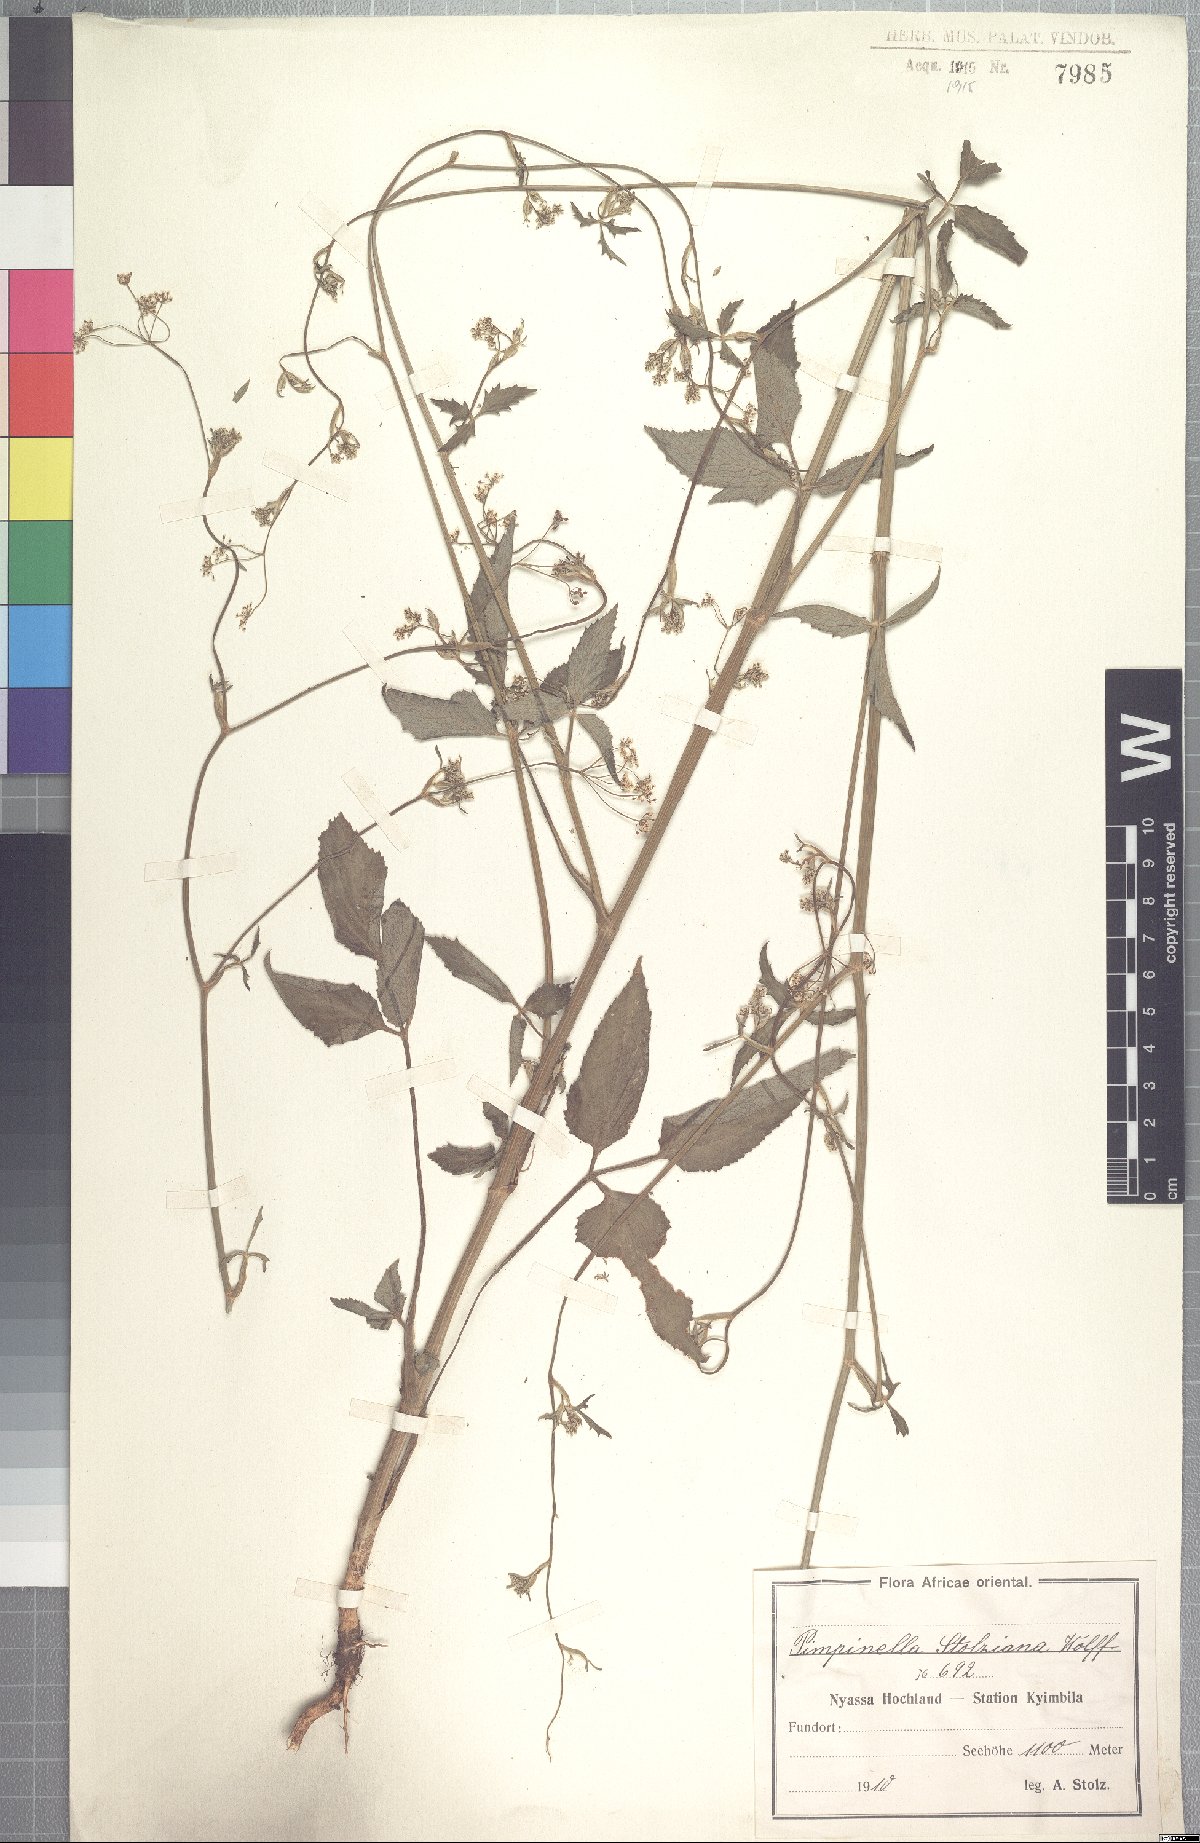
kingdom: Plantae
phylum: Tracheophyta
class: Magnoliopsida
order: Apiales
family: Apiaceae
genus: Pimpinella
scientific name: Pimpinella buchananii
